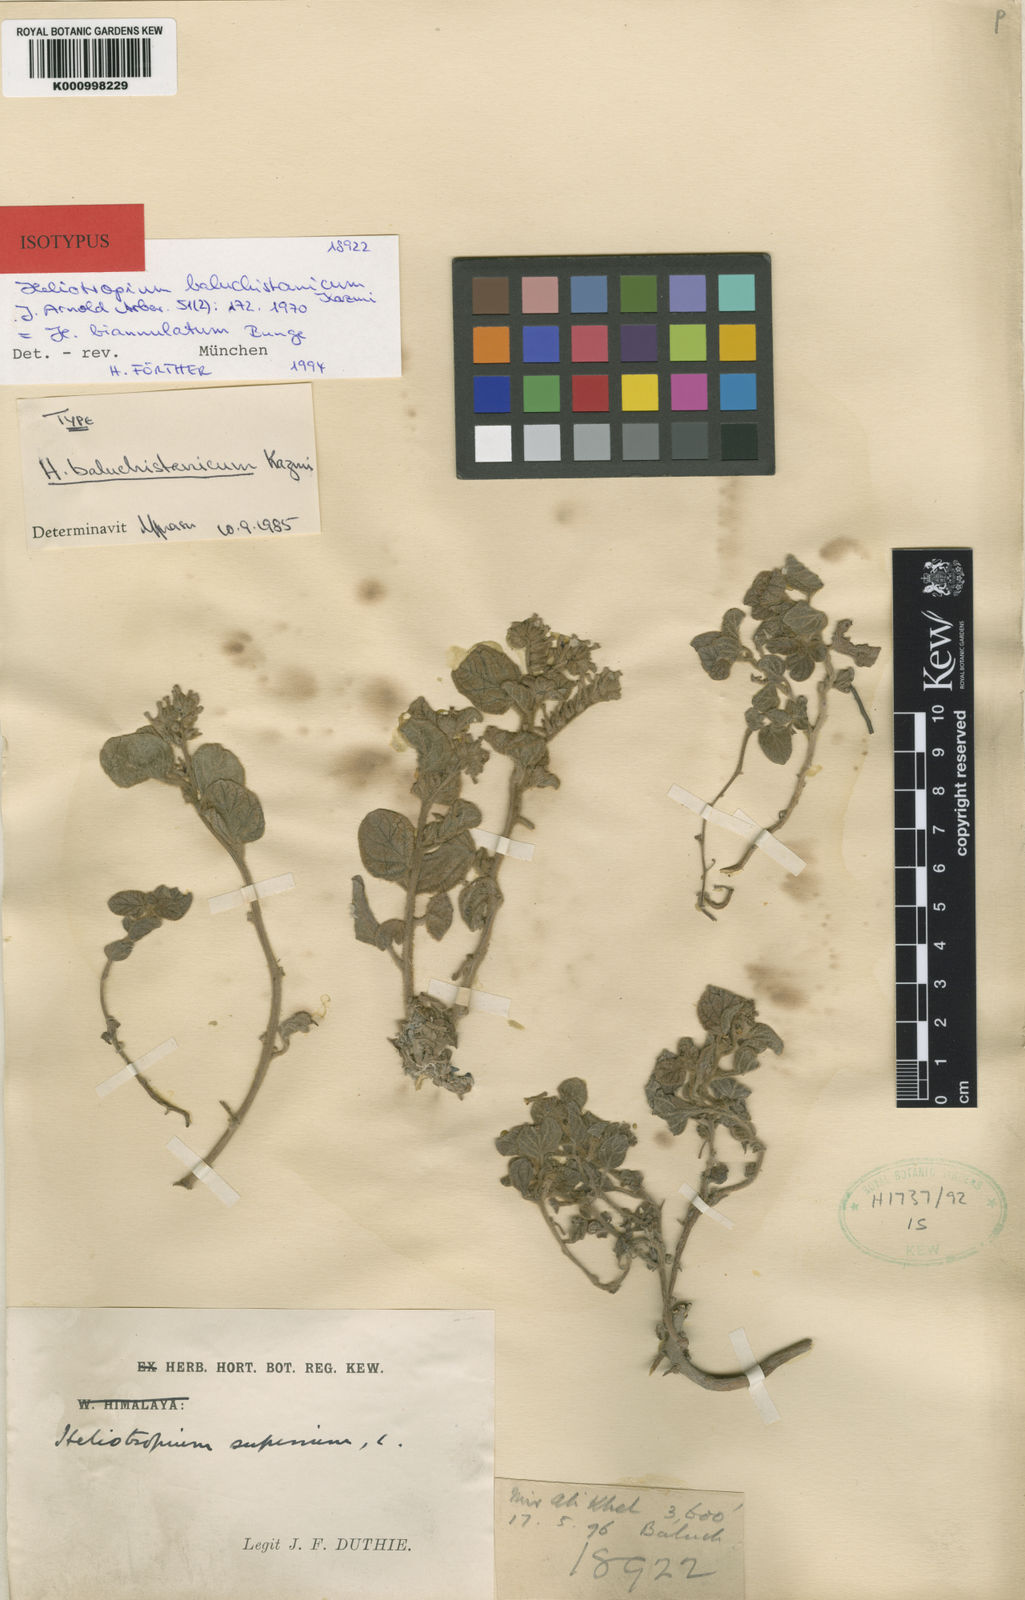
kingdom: Plantae
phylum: Tracheophyta
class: Magnoliopsida
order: Boraginales
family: Heliotropiaceae
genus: Heliotropium
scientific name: Heliotropium baluchistanicum
